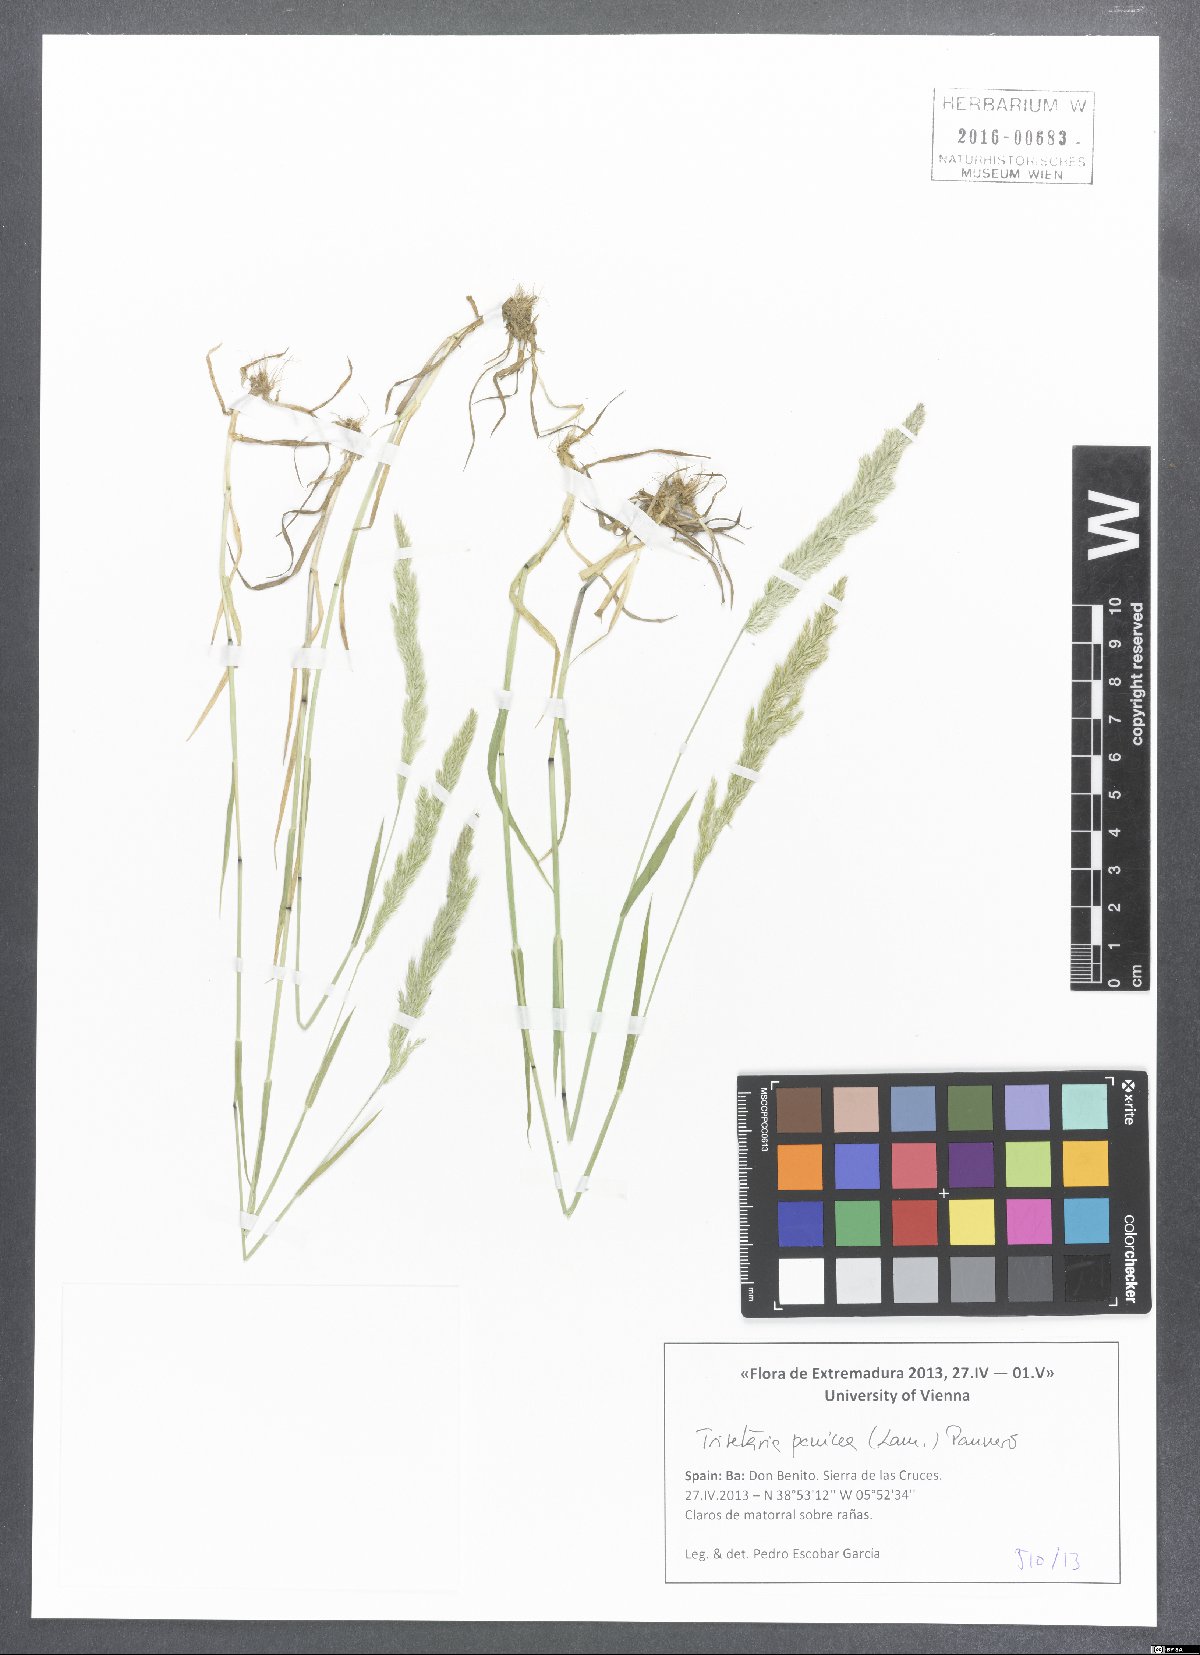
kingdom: Plantae
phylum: Tracheophyta
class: Liliopsida
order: Poales
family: Poaceae
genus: Trisetaria
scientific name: Trisetaria panicea
